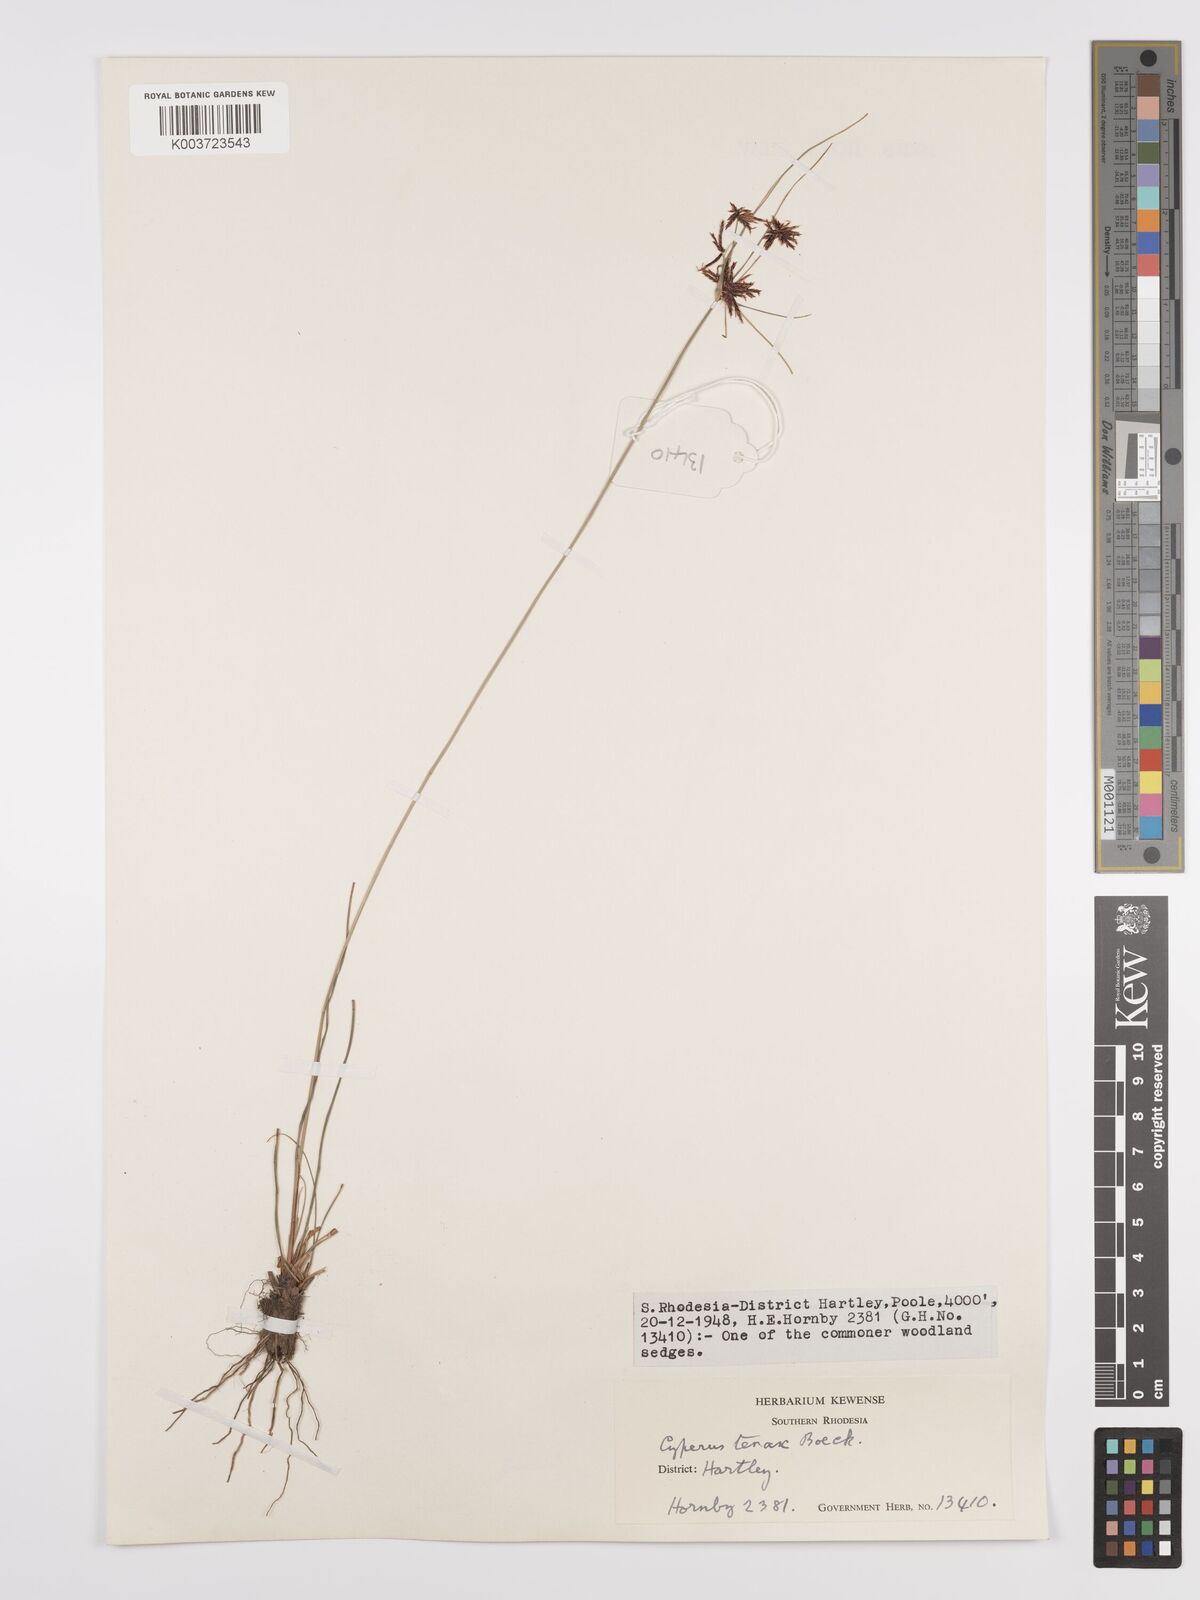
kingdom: Plantae
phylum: Tracheophyta
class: Liliopsida
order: Poales
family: Cyperaceae
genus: Cyperus
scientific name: Cyperus tenax
